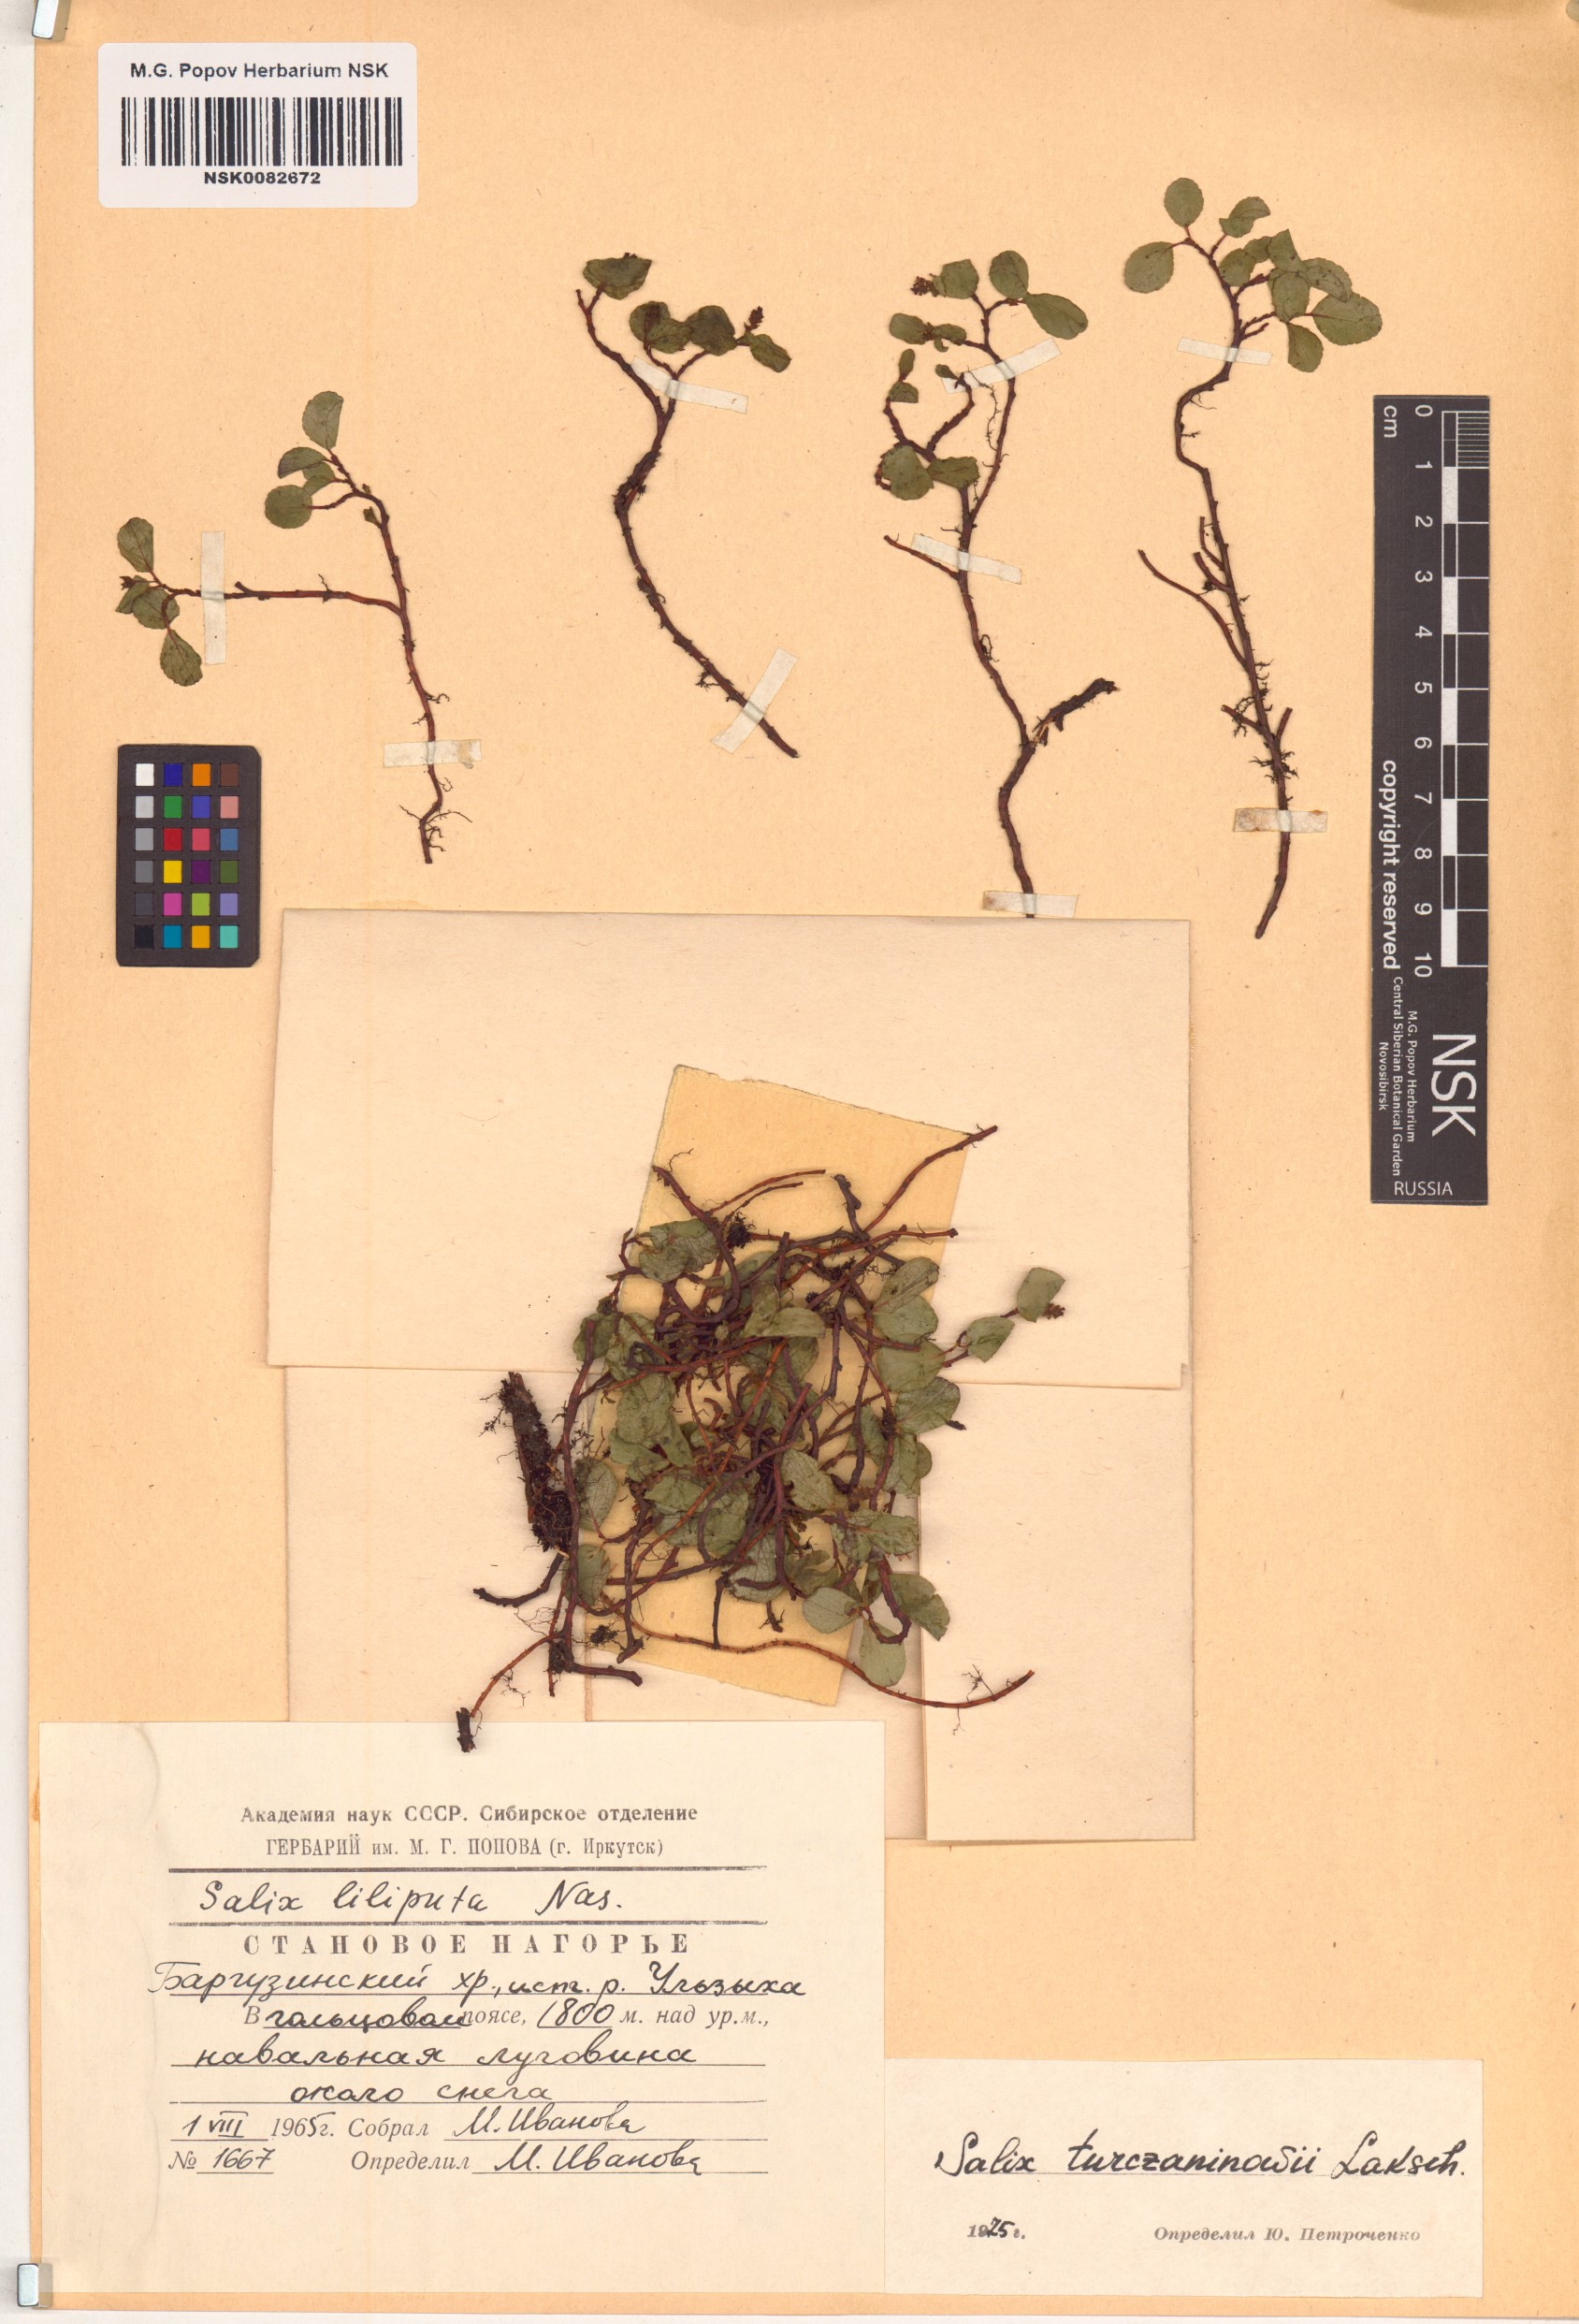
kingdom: Plantae
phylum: Tracheophyta
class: Magnoliopsida
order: Malpighiales
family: Salicaceae
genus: Salix
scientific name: Salix turczaninowii
